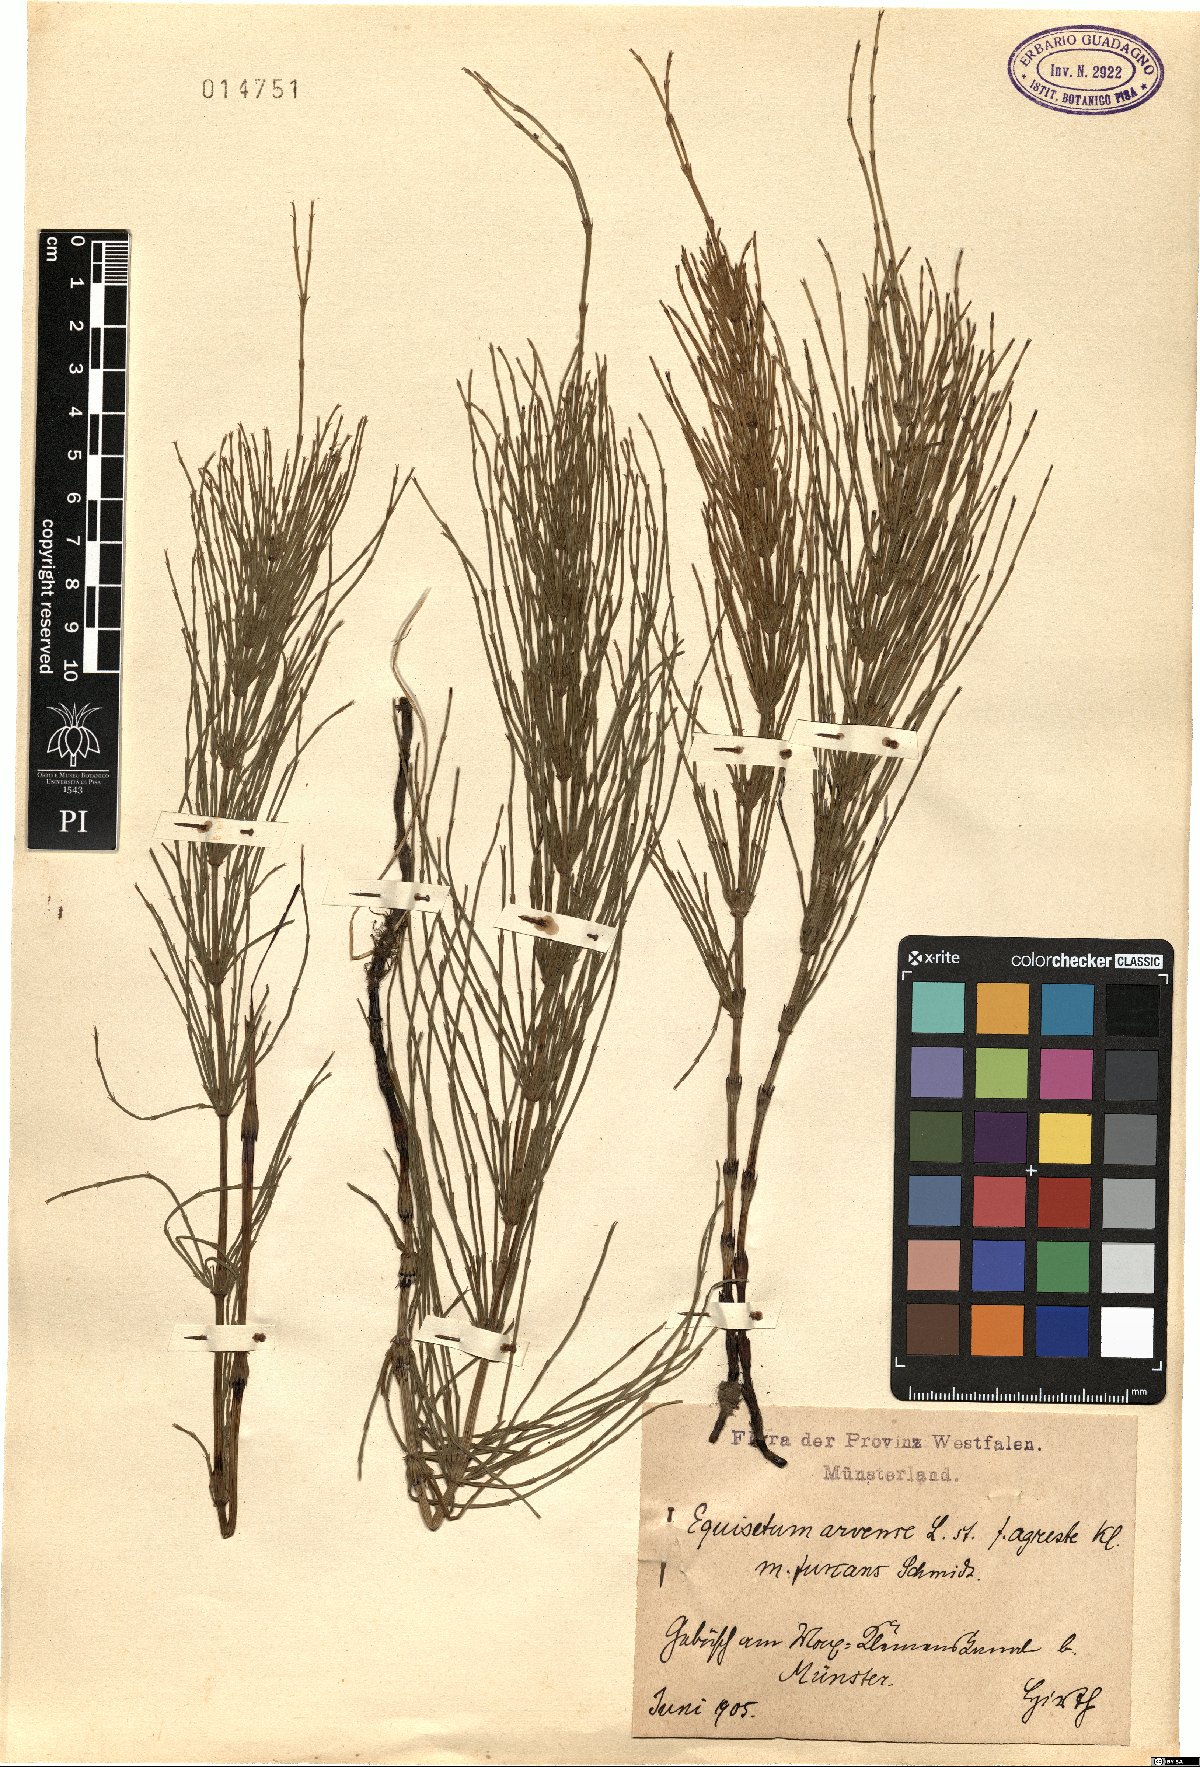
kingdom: Plantae
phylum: Tracheophyta
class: Polypodiopsida
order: Equisetales
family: Equisetaceae
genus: Equisetum
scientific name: Equisetum arvense
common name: Field horsetail
